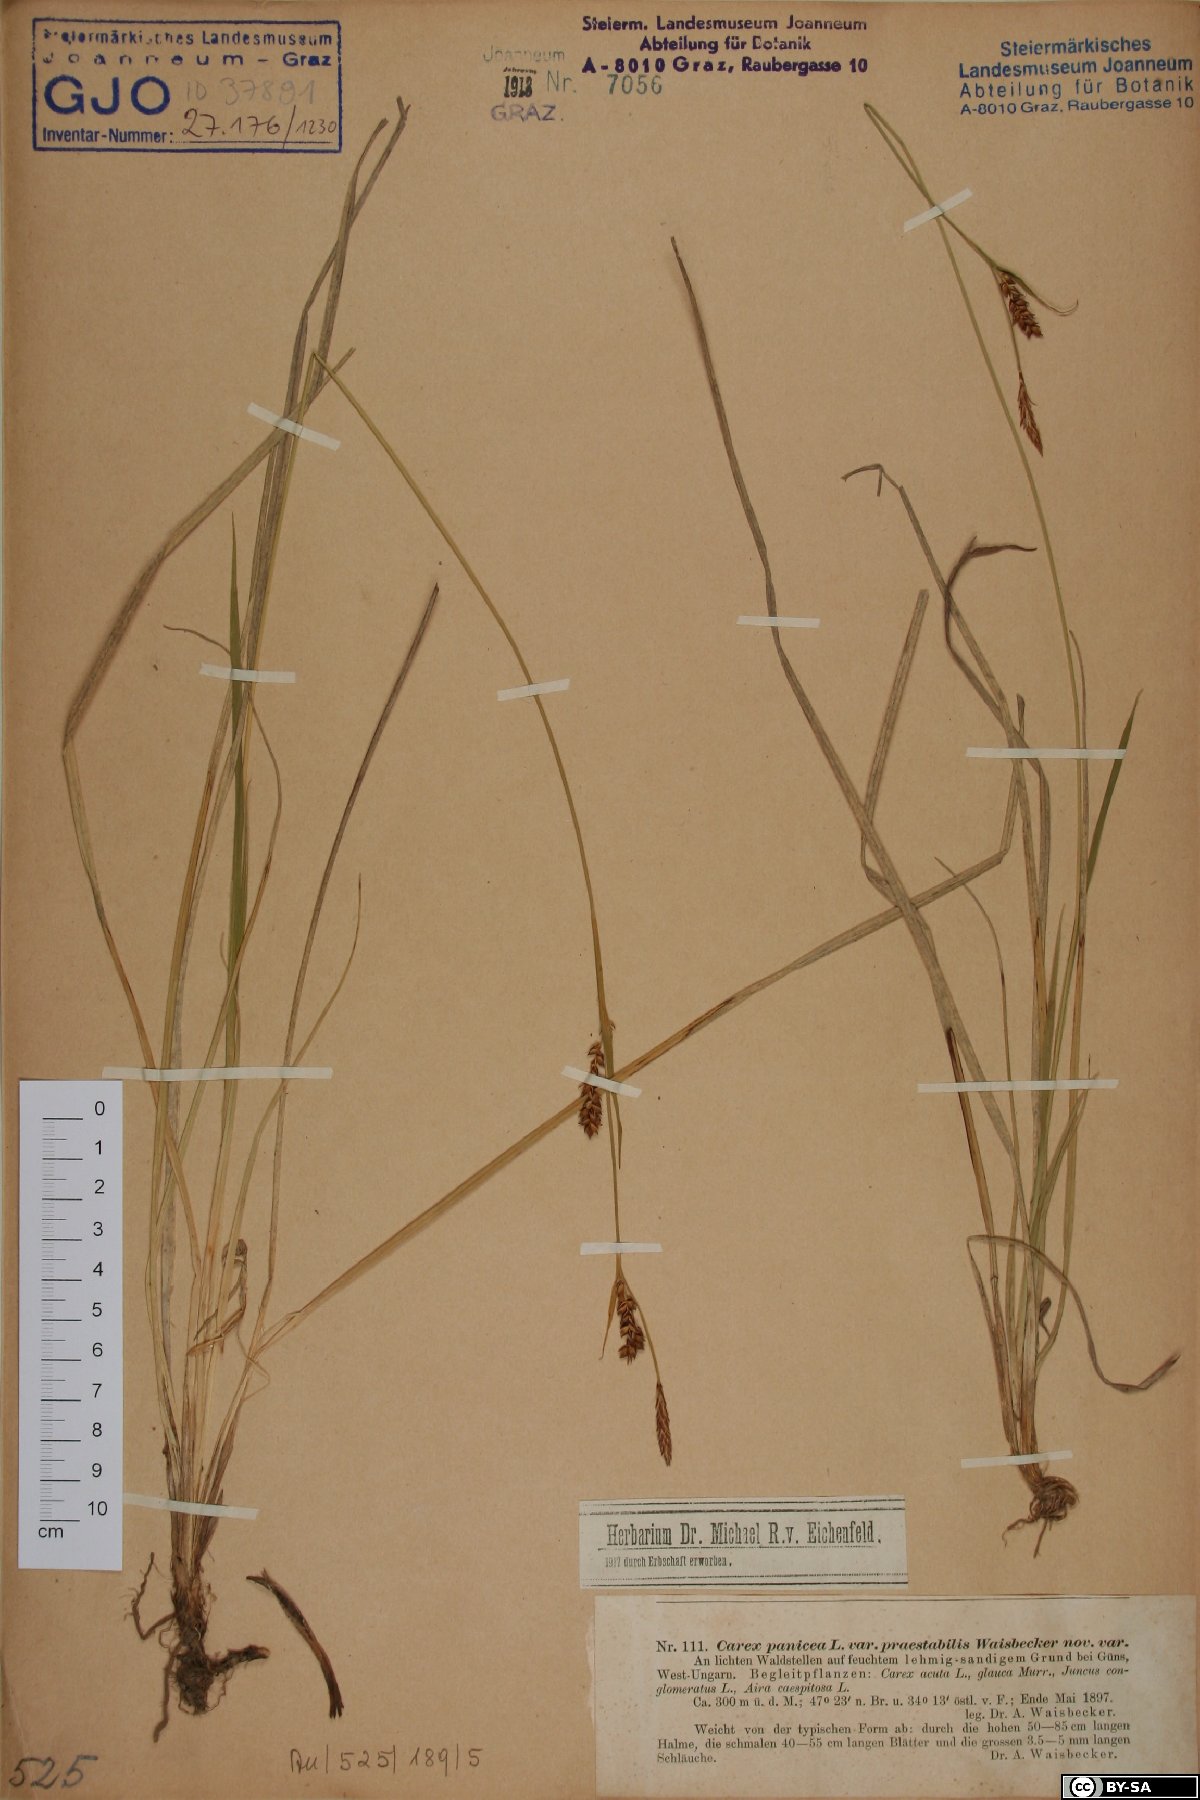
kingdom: Plantae
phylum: Tracheophyta
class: Liliopsida
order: Poales
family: Cyperaceae
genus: Carex
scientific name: Carex panicea
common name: Carnation sedge
